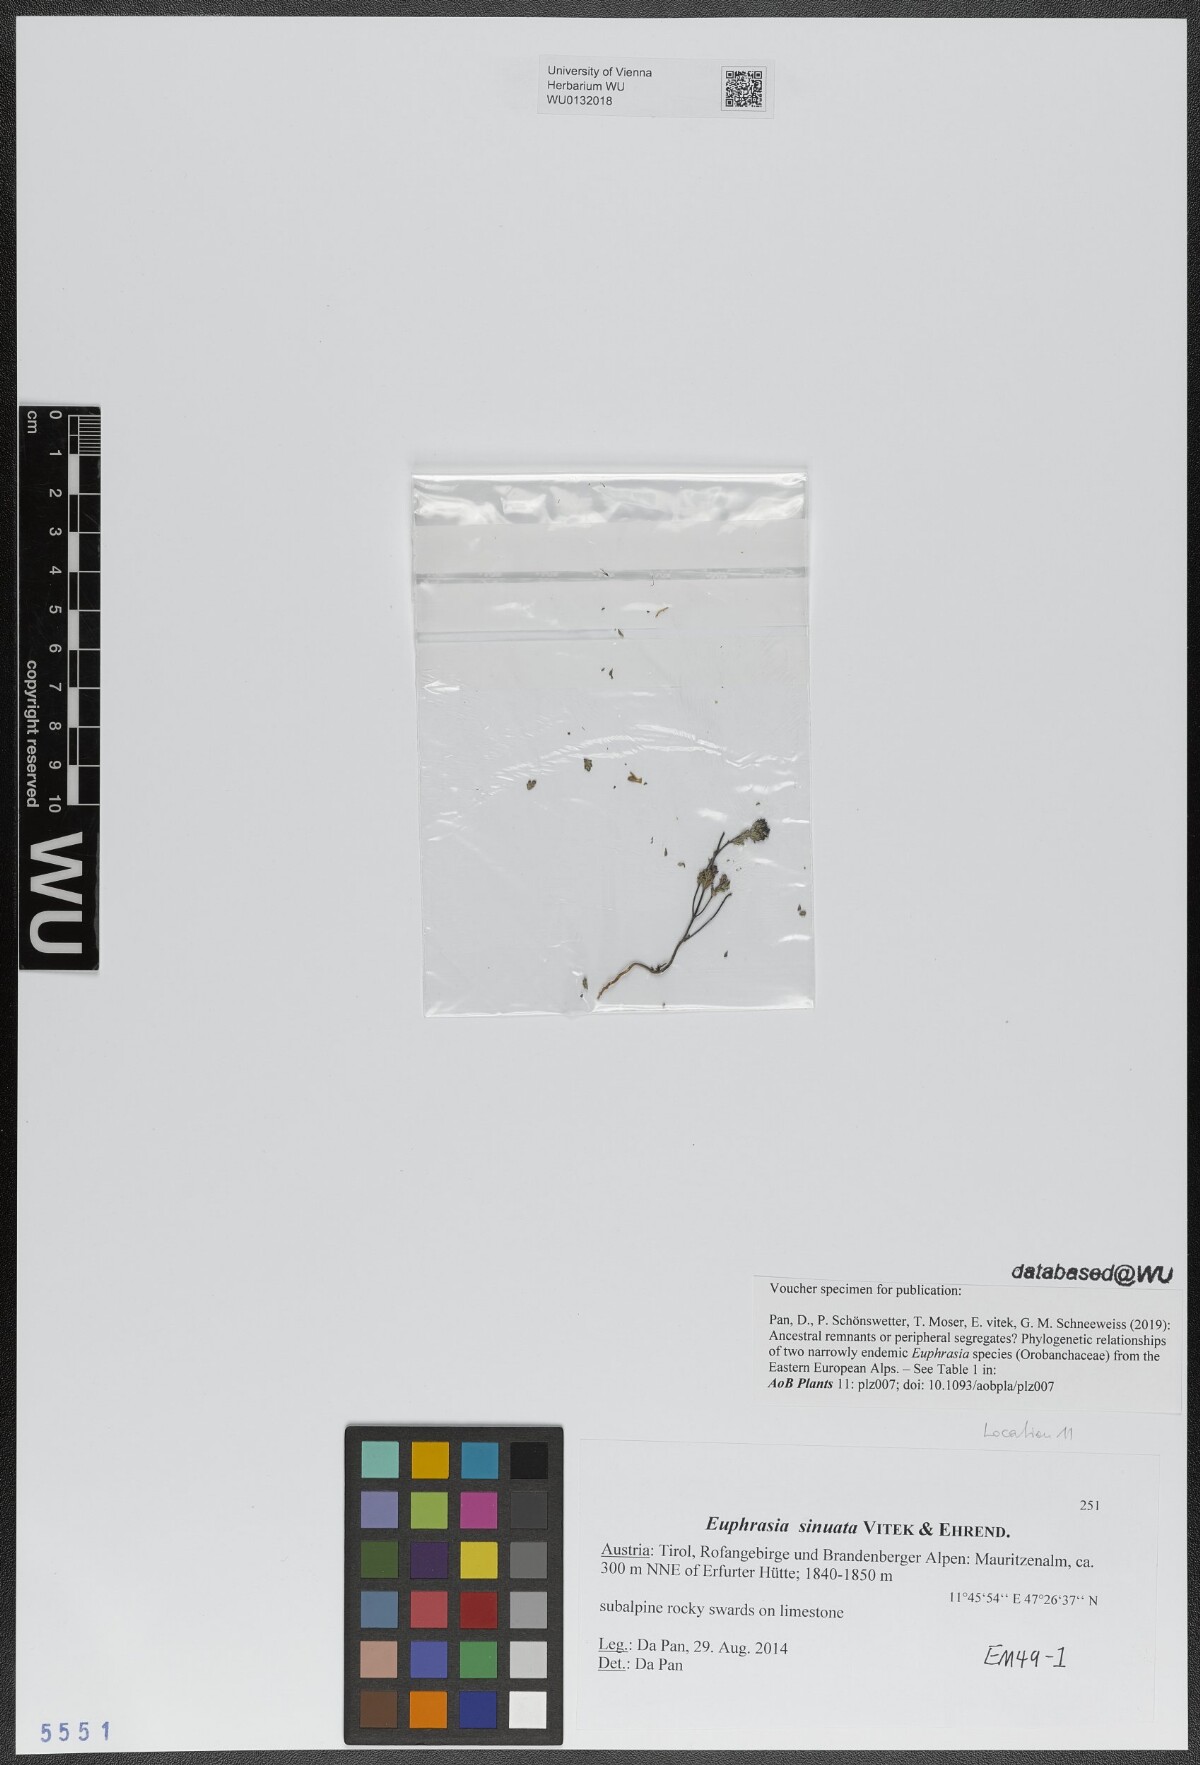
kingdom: Plantae
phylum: Tracheophyta
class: Magnoliopsida
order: Lamiales
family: Orobanchaceae
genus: Euphrasia
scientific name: Euphrasia sinuata
